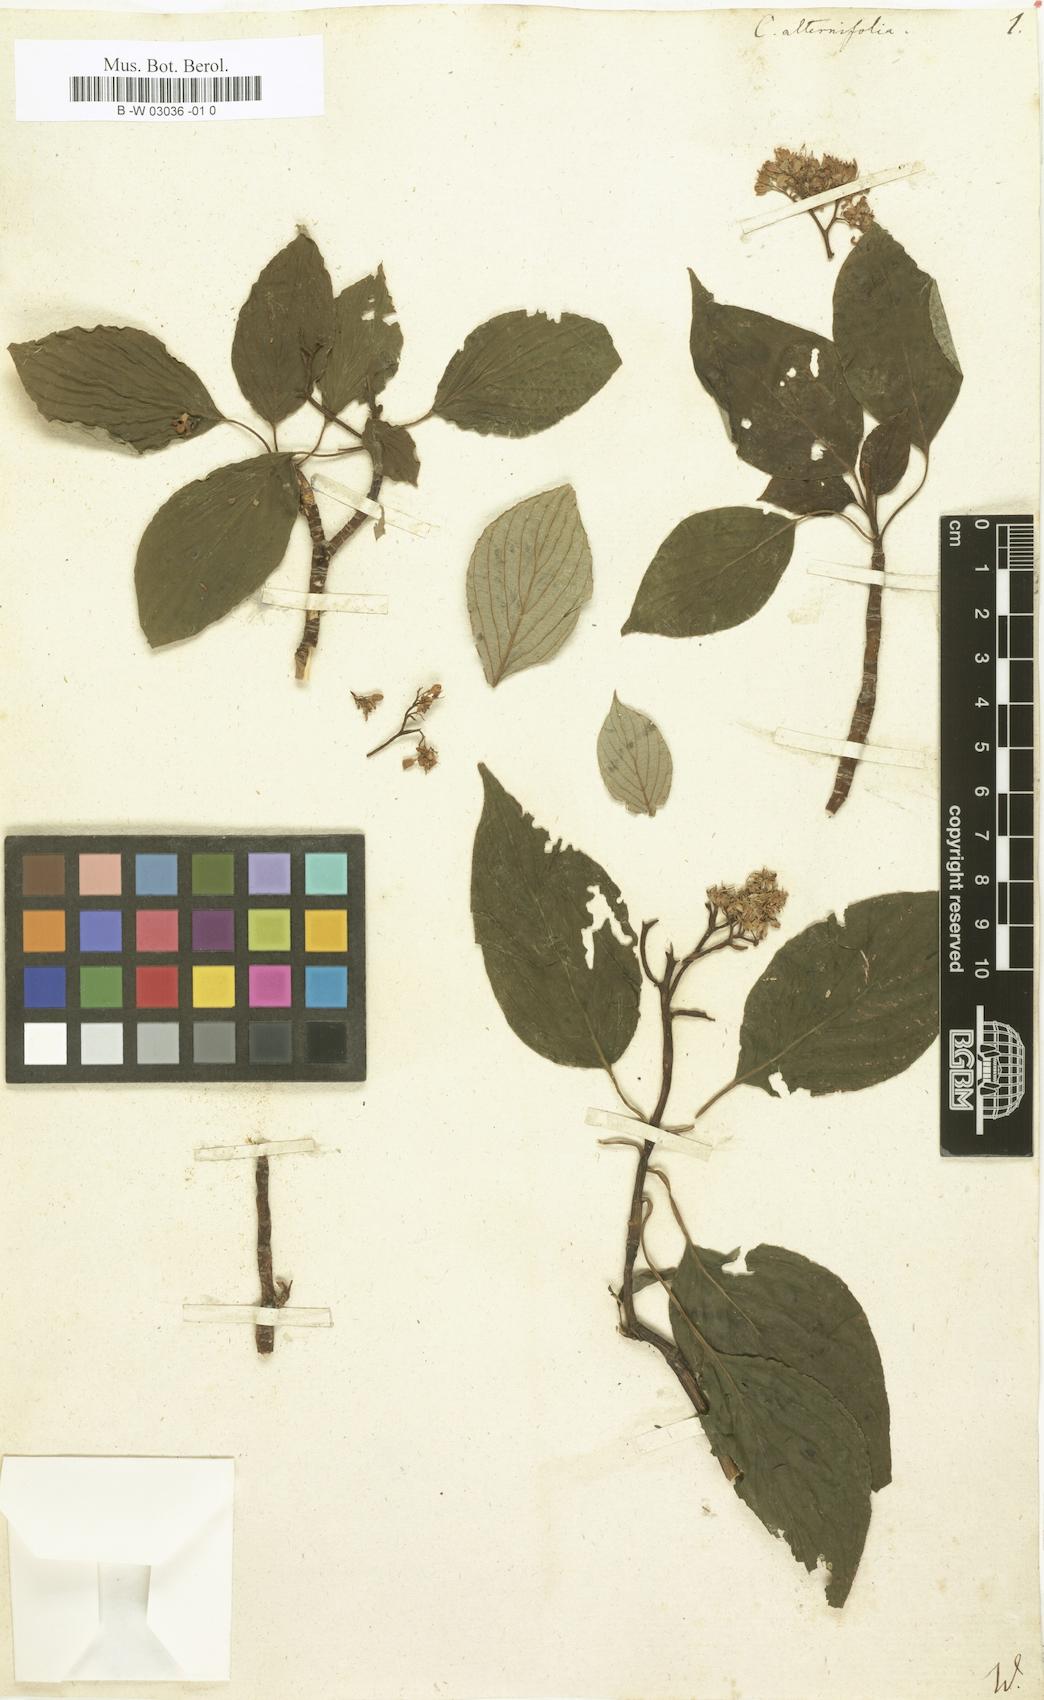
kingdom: Plantae
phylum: Tracheophyta
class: Magnoliopsida
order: Cornales
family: Cornaceae
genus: Cornus
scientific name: Cornus alternifolia
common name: Pagoda dogwood
